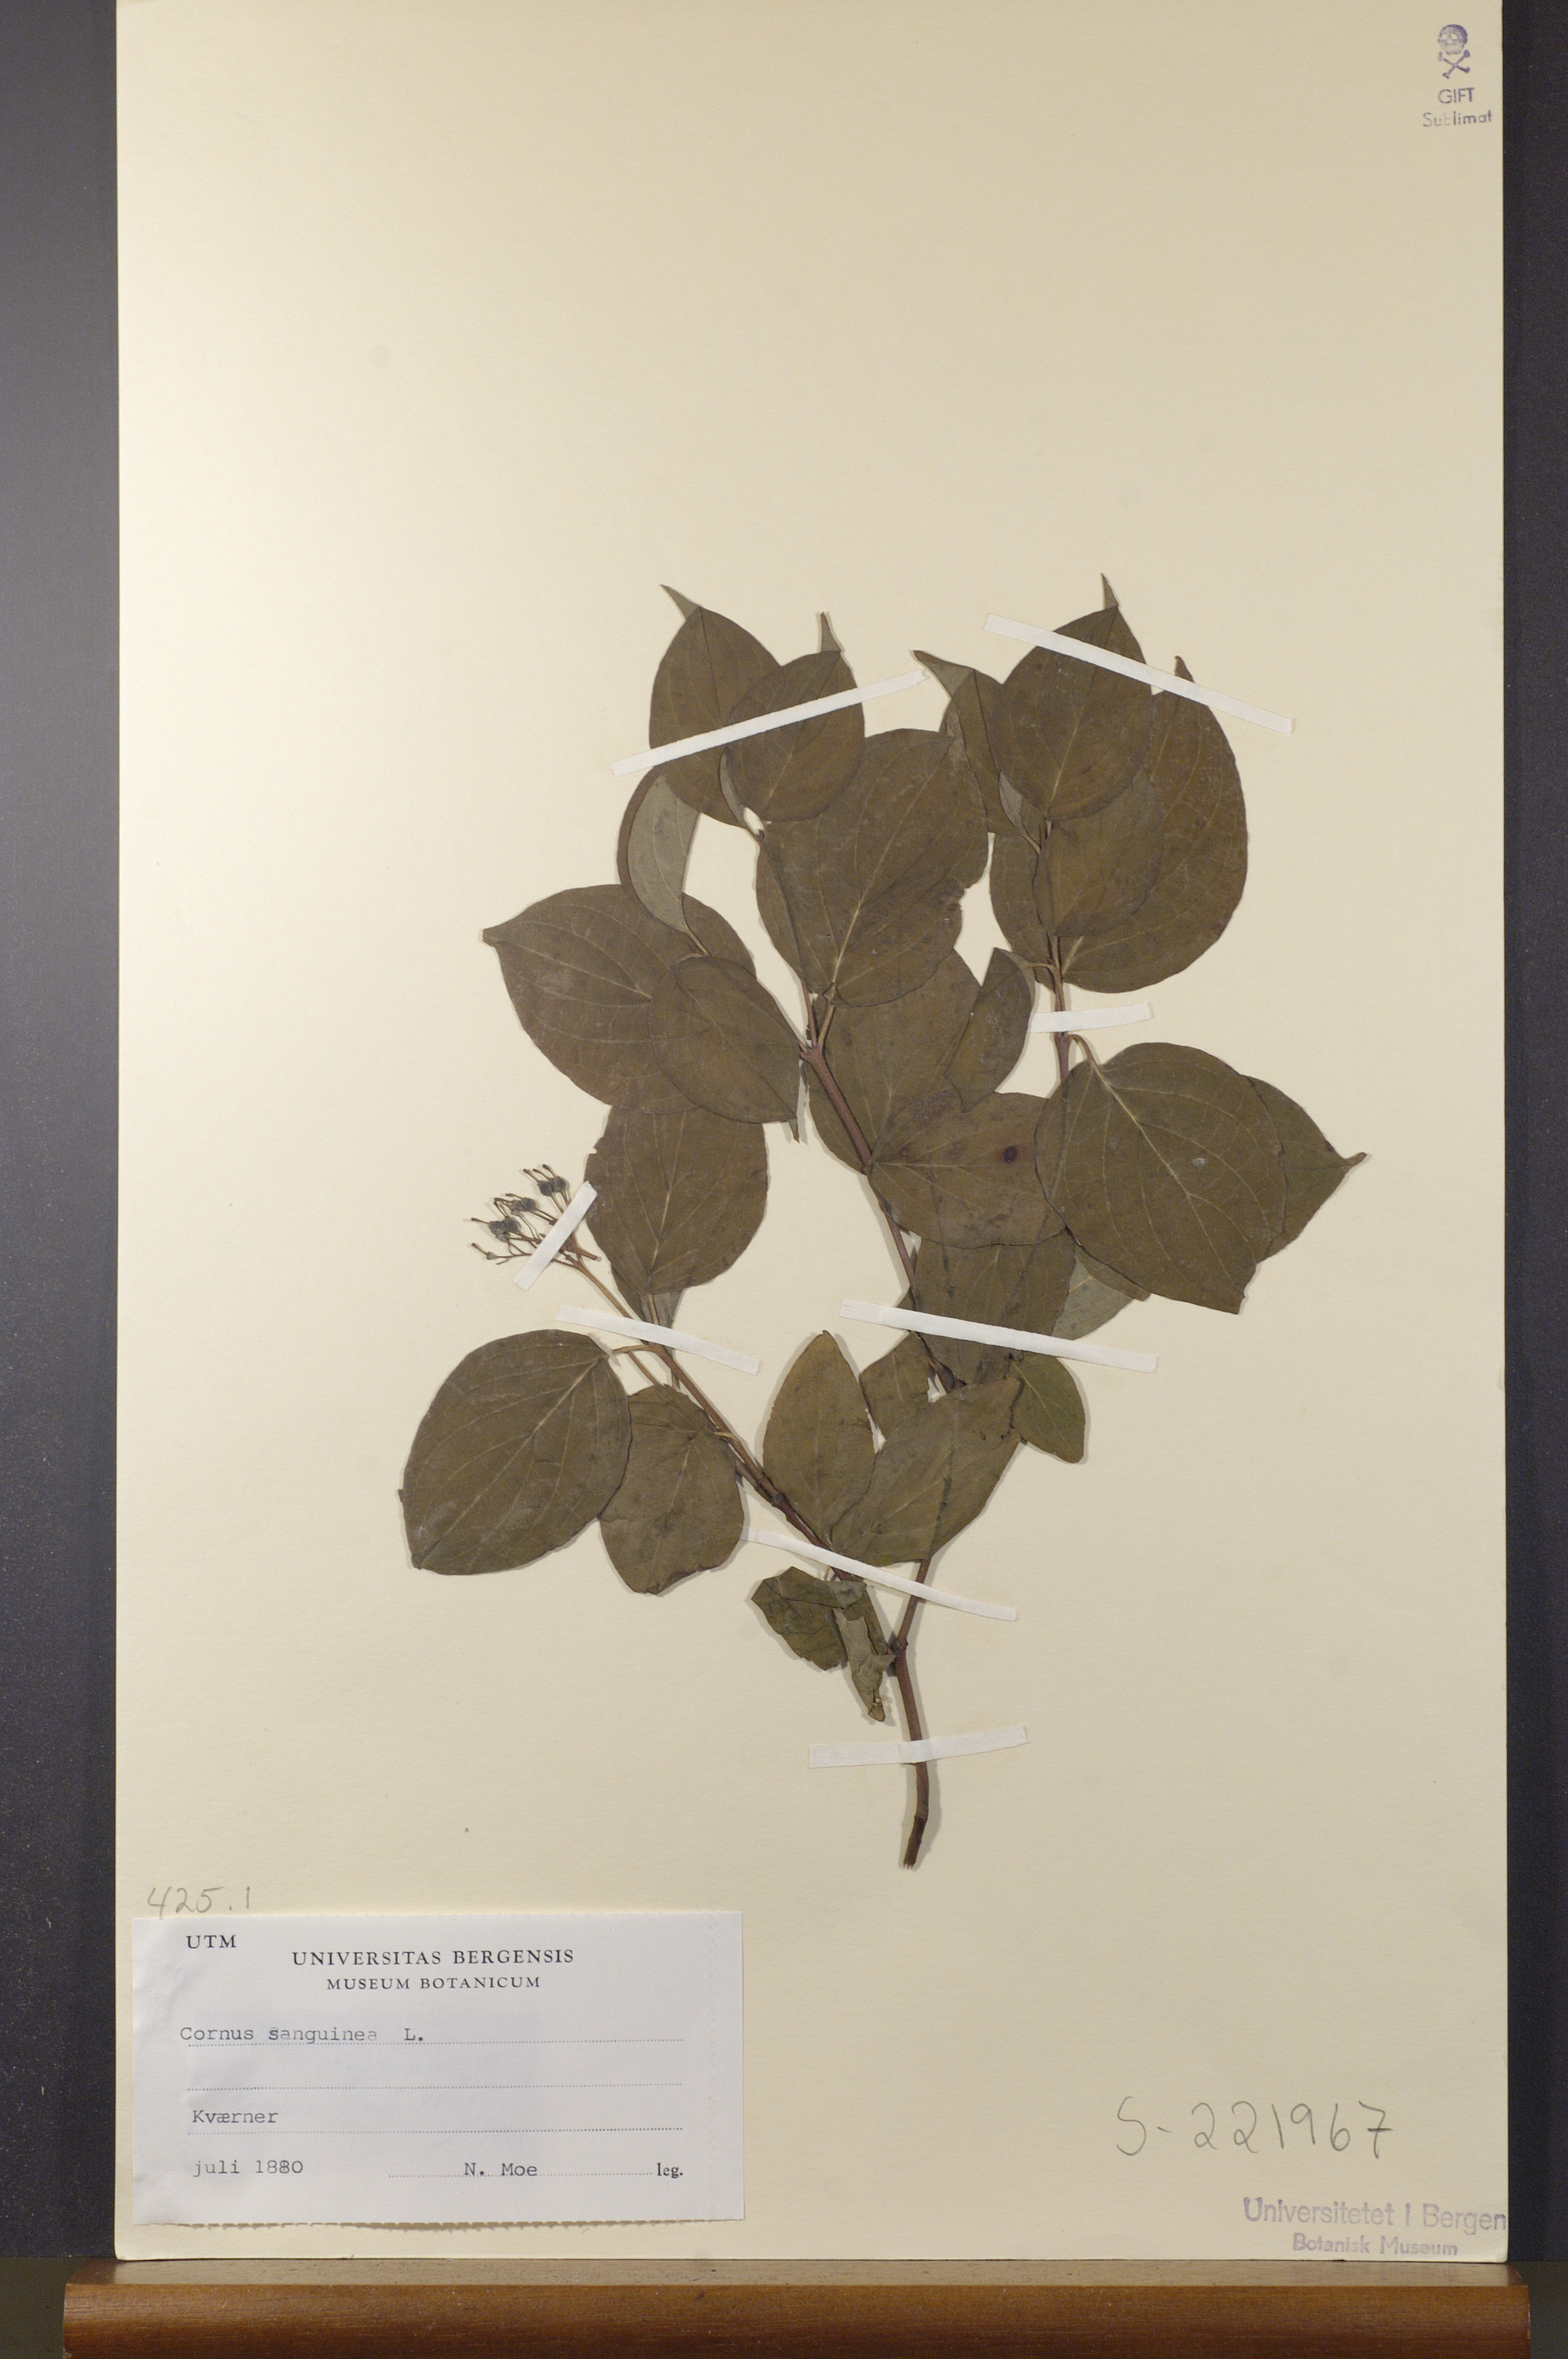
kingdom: Plantae
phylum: Tracheophyta
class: Magnoliopsida
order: Cornales
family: Cornaceae
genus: Cornus
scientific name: Cornus sanguinea
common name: Dogwood
